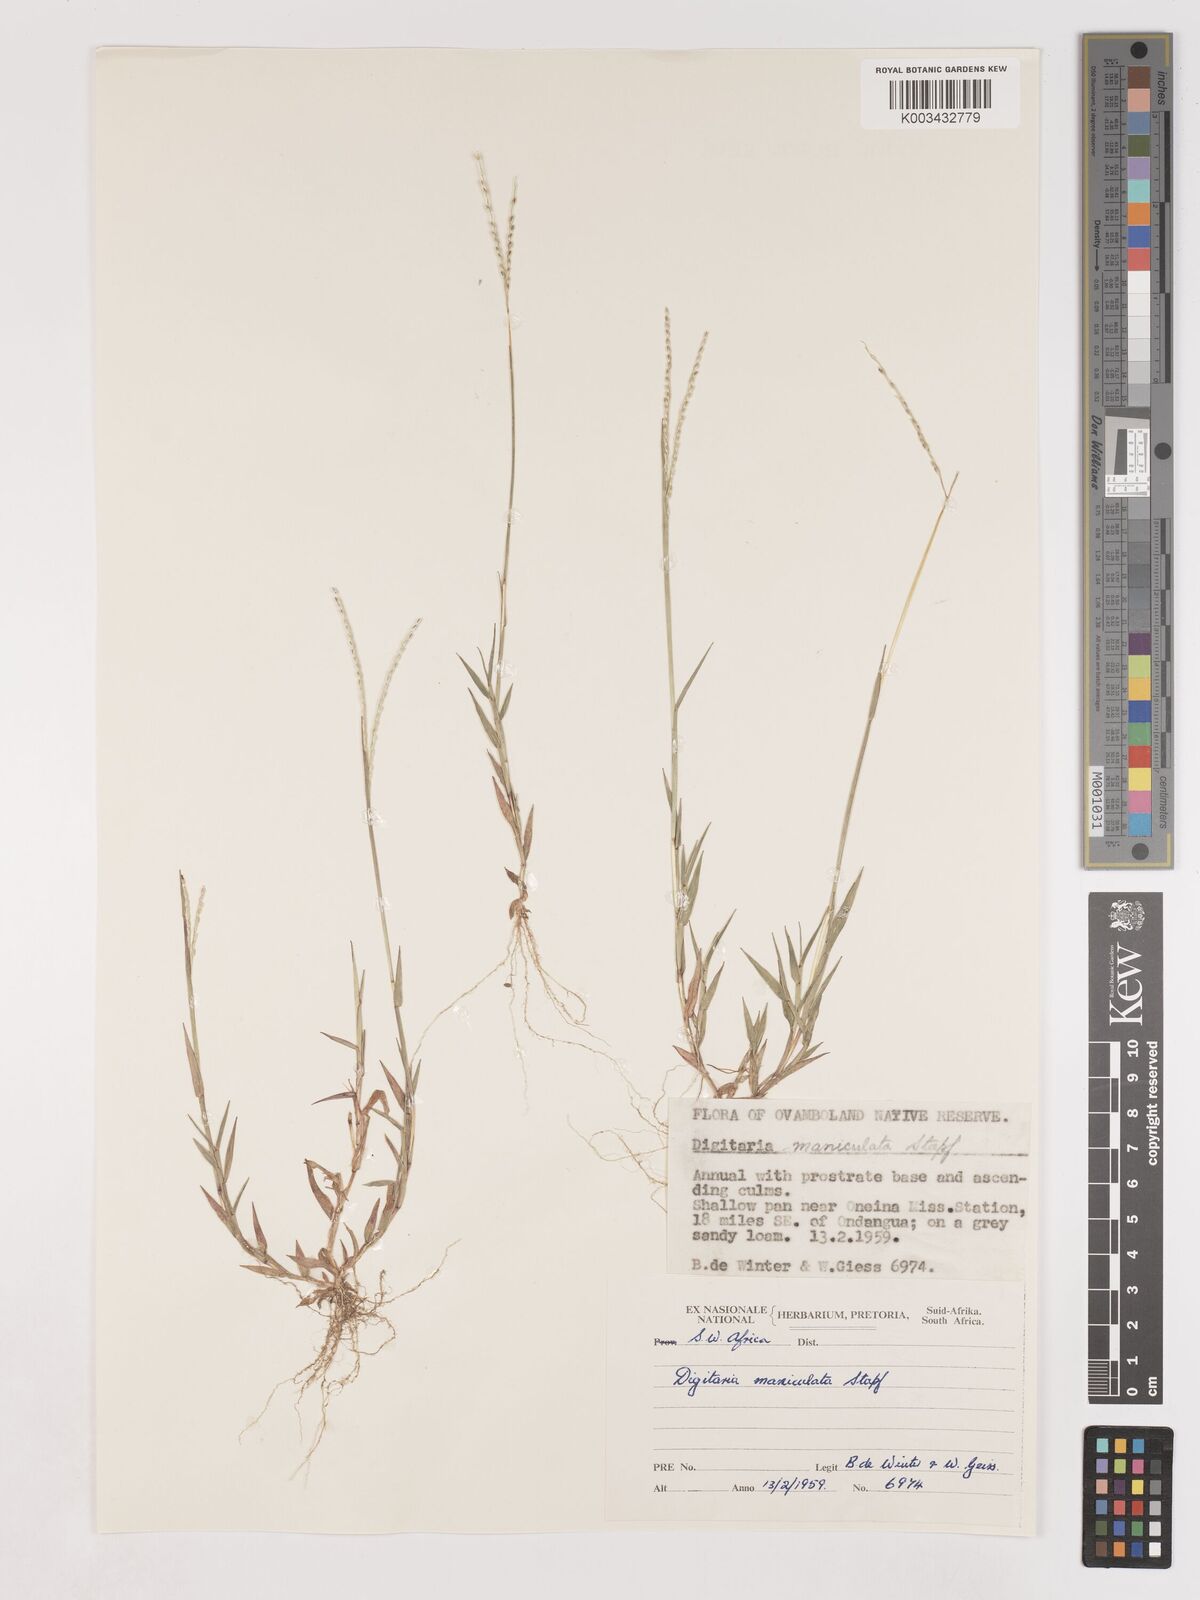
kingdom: Plantae
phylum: Tracheophyta
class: Liliopsida
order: Poales
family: Poaceae
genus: Digitaria
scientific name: Digitaria maniculata
